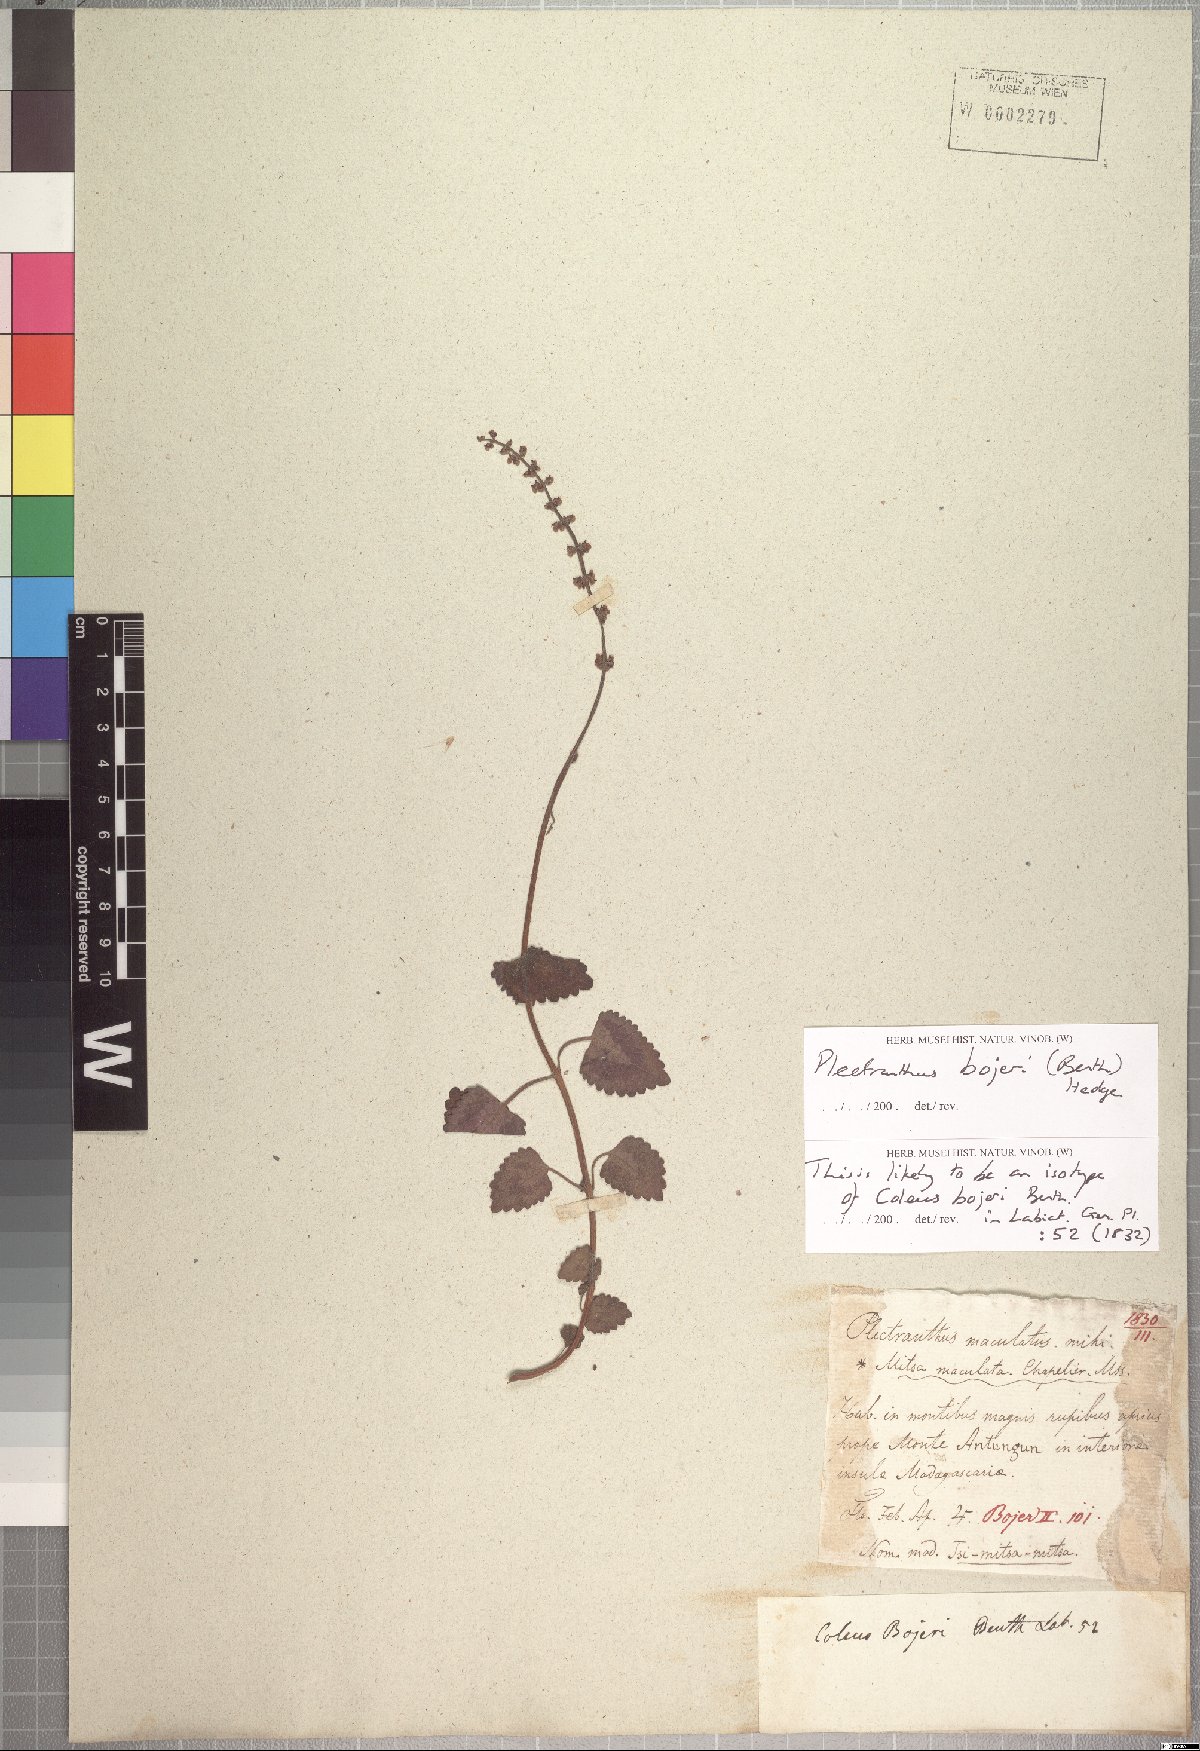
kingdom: Plantae
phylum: Tracheophyta
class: Magnoliopsida
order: Lamiales
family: Lamiaceae
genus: Coleus
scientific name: Coleus bojeri
